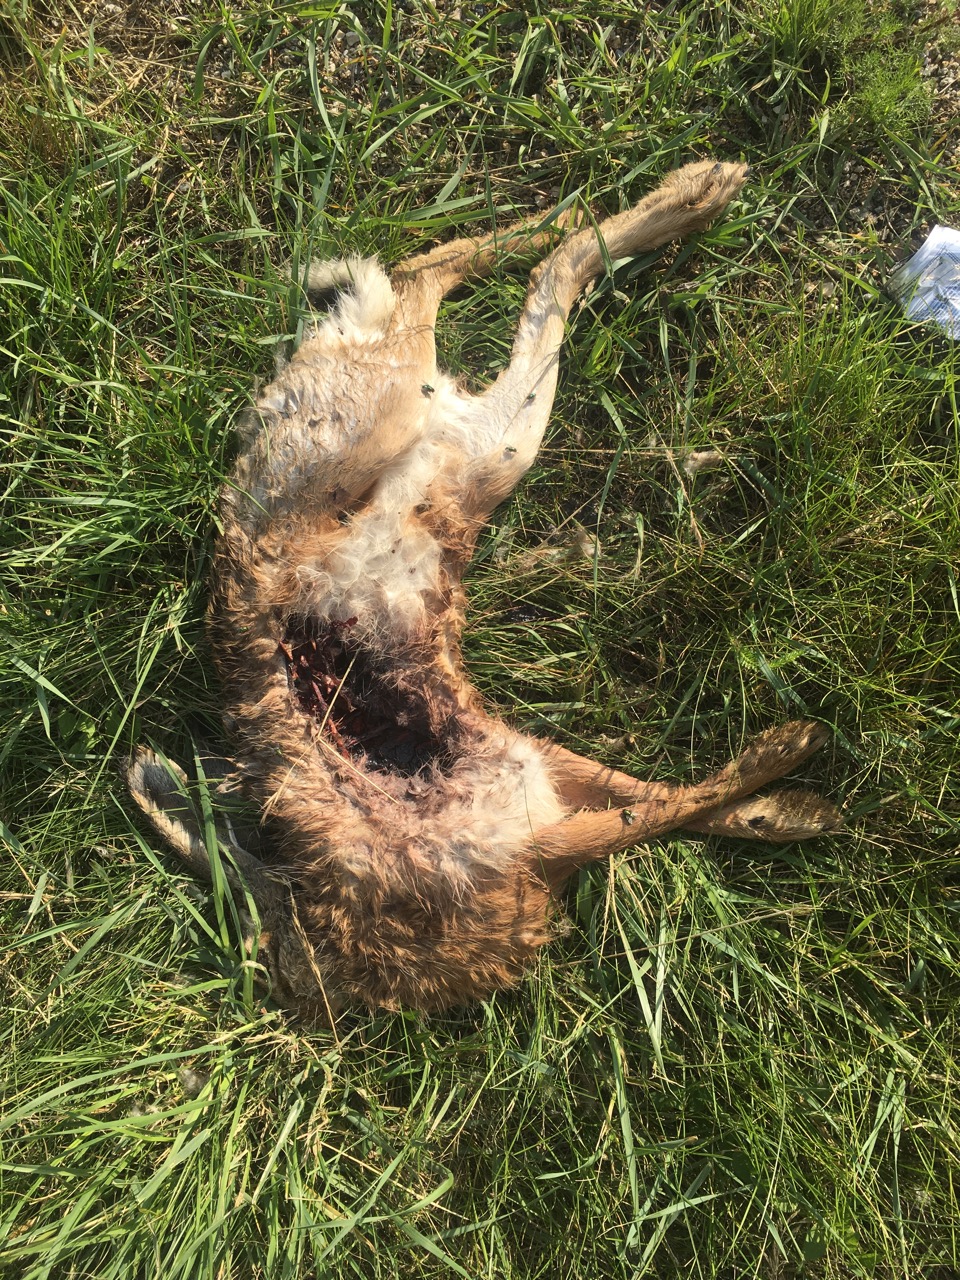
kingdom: Animalia
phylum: Chordata
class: Mammalia
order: Lagomorpha
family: Leporidae
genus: Lepus
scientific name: Lepus europaeus
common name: European hare
